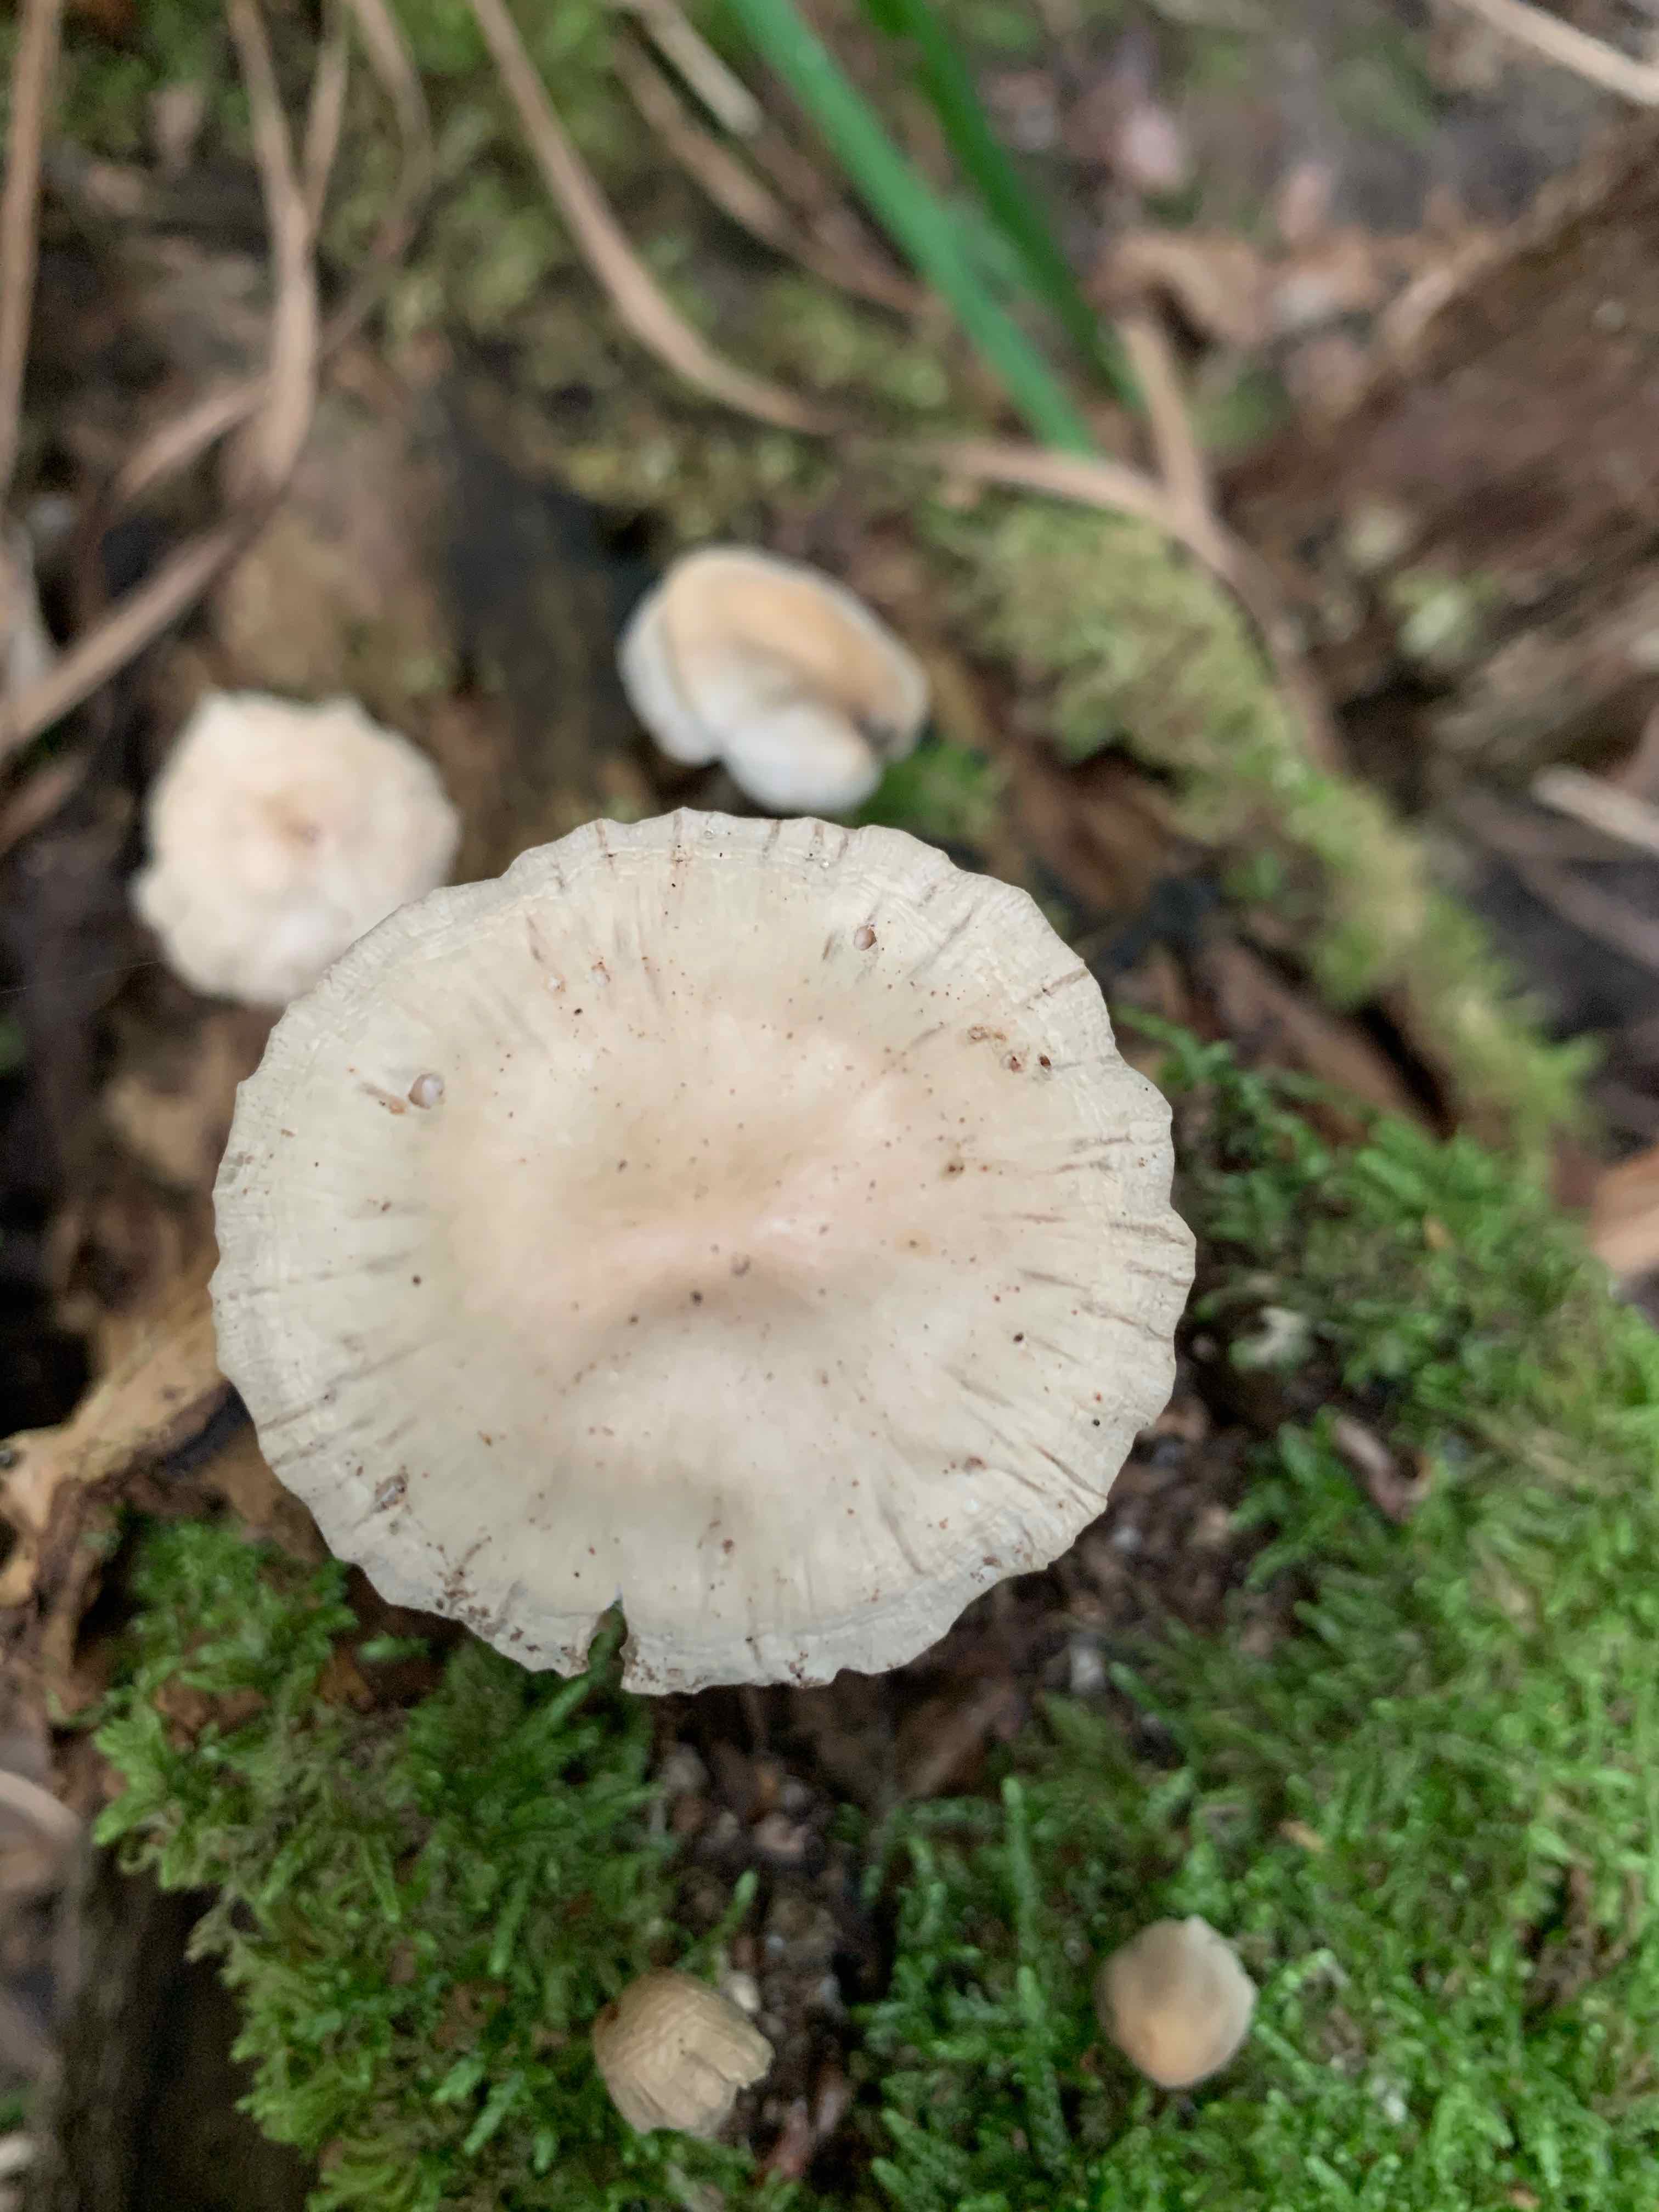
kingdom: Fungi
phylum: Basidiomycota
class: Agaricomycetes
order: Agaricales
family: Mycenaceae
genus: Mycena
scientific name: Mycena galericulata
